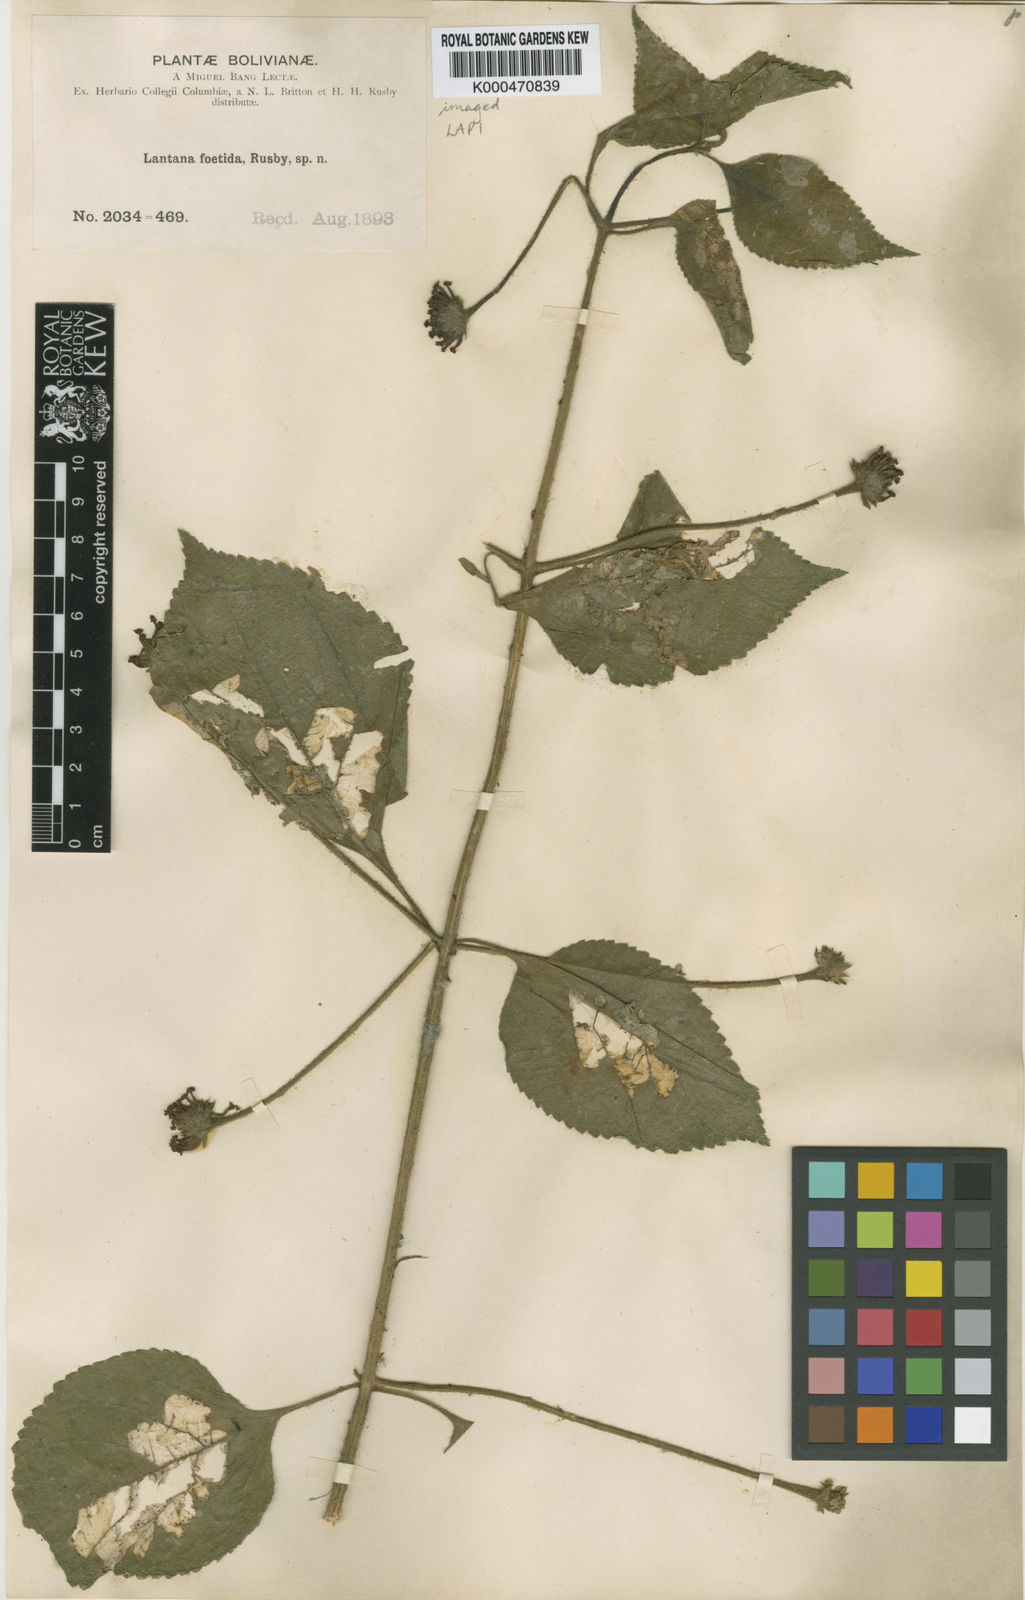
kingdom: Plantae
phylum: Tracheophyta
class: Magnoliopsida
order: Lamiales
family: Verbenaceae
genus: Lantana
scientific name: Lantana horrida
